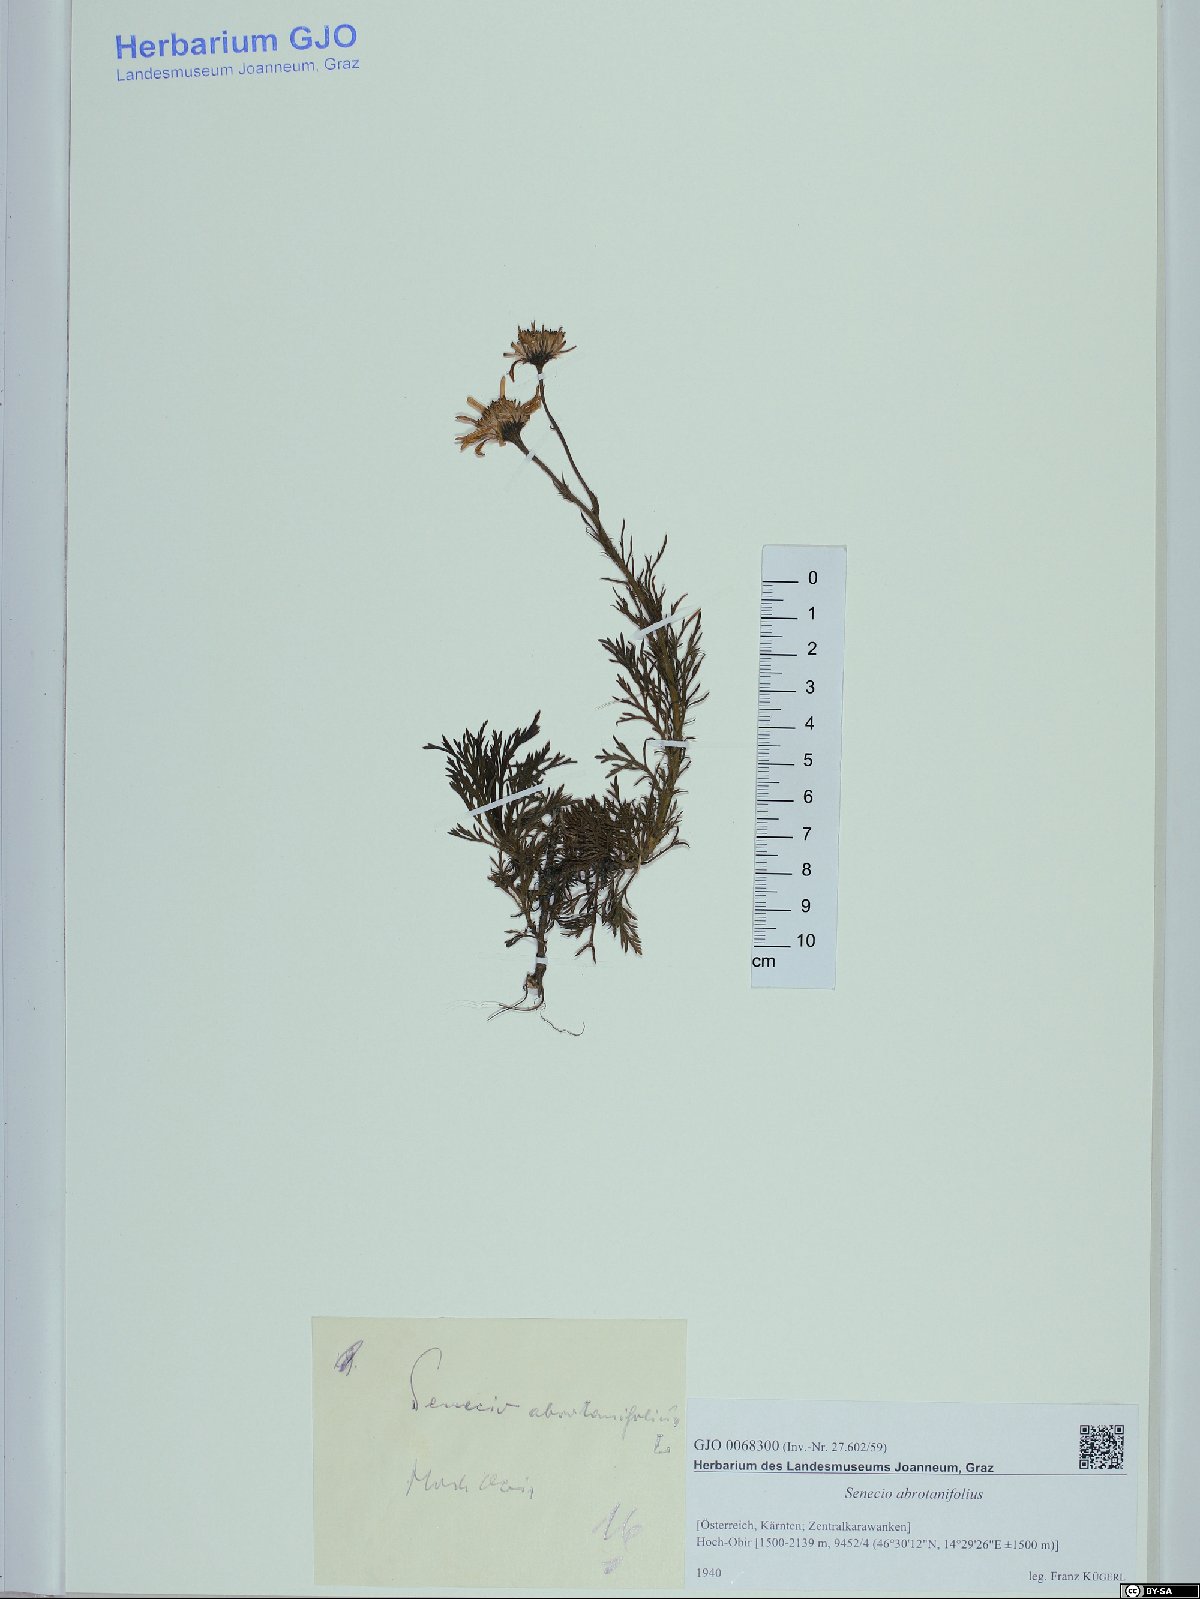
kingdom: Plantae
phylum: Tracheophyta
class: Magnoliopsida
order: Asterales
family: Asteraceae
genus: Jacobaea
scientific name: Jacobaea abrotanifolia
